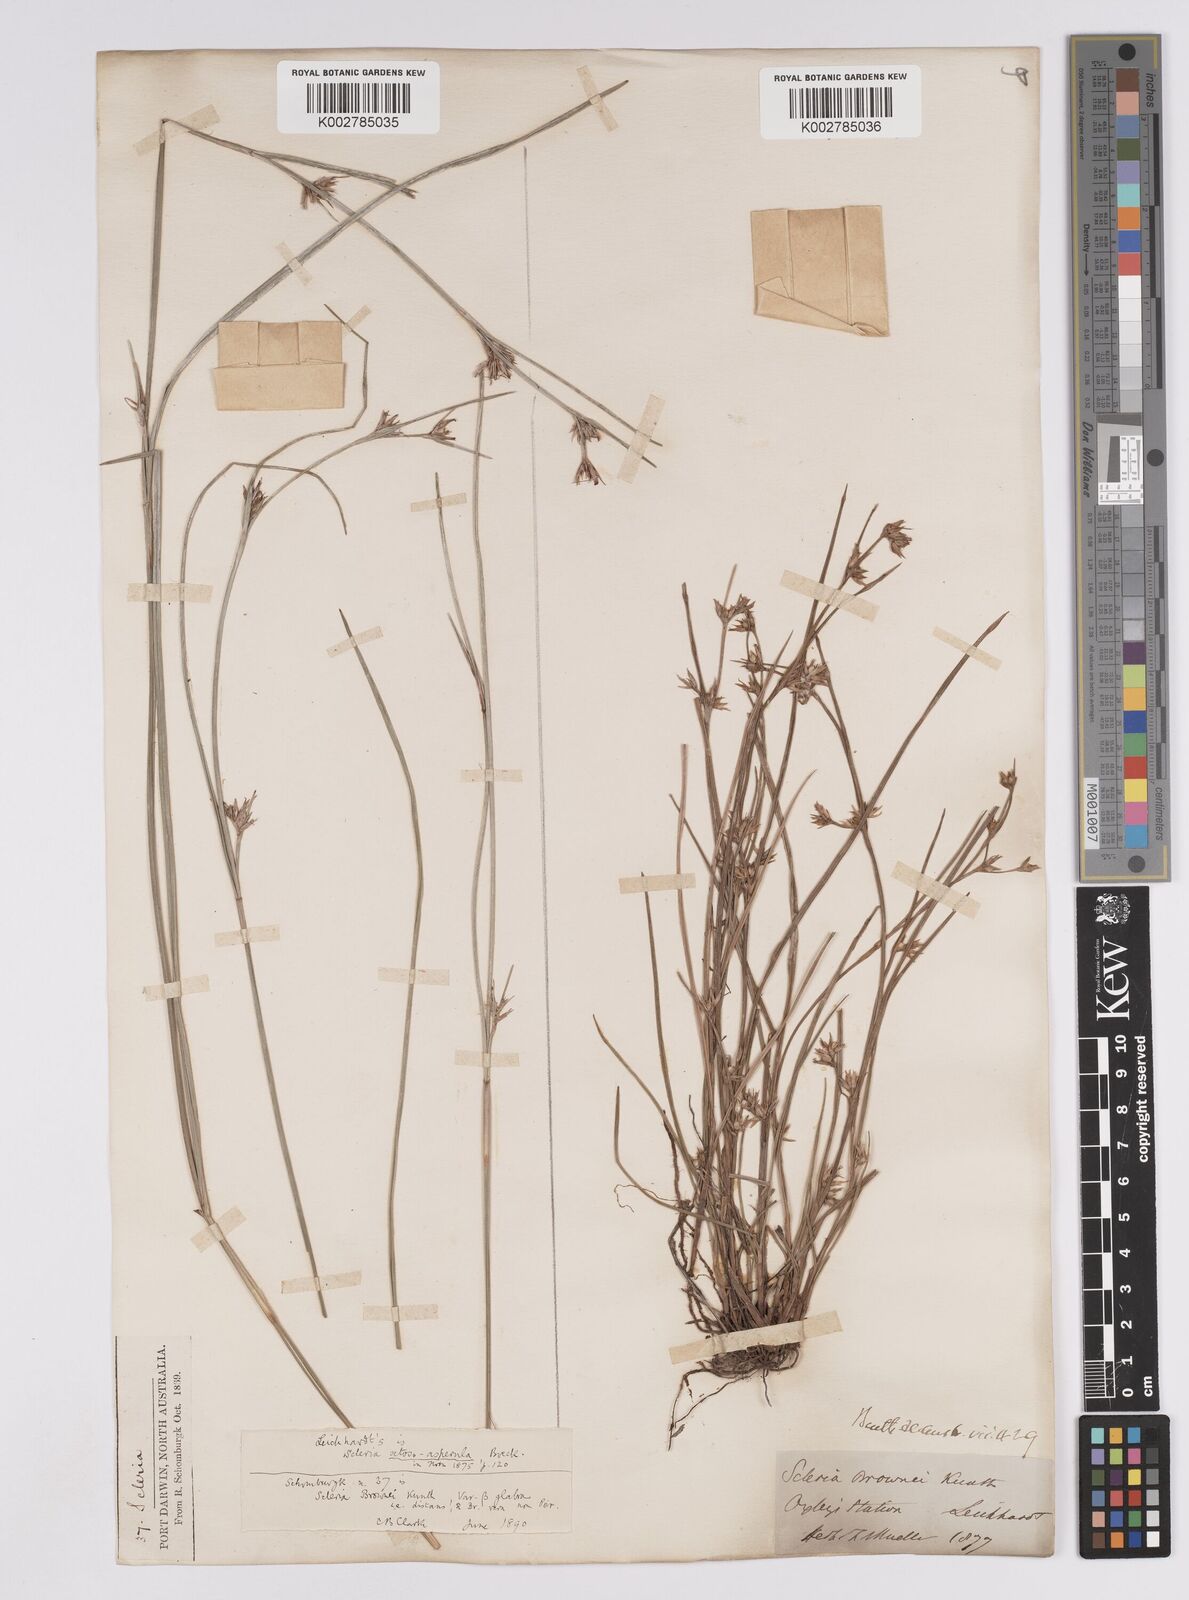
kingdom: Plantae
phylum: Tracheophyta
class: Liliopsida
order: Poales
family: Cyperaceae
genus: Scleria
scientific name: Scleria brownii
